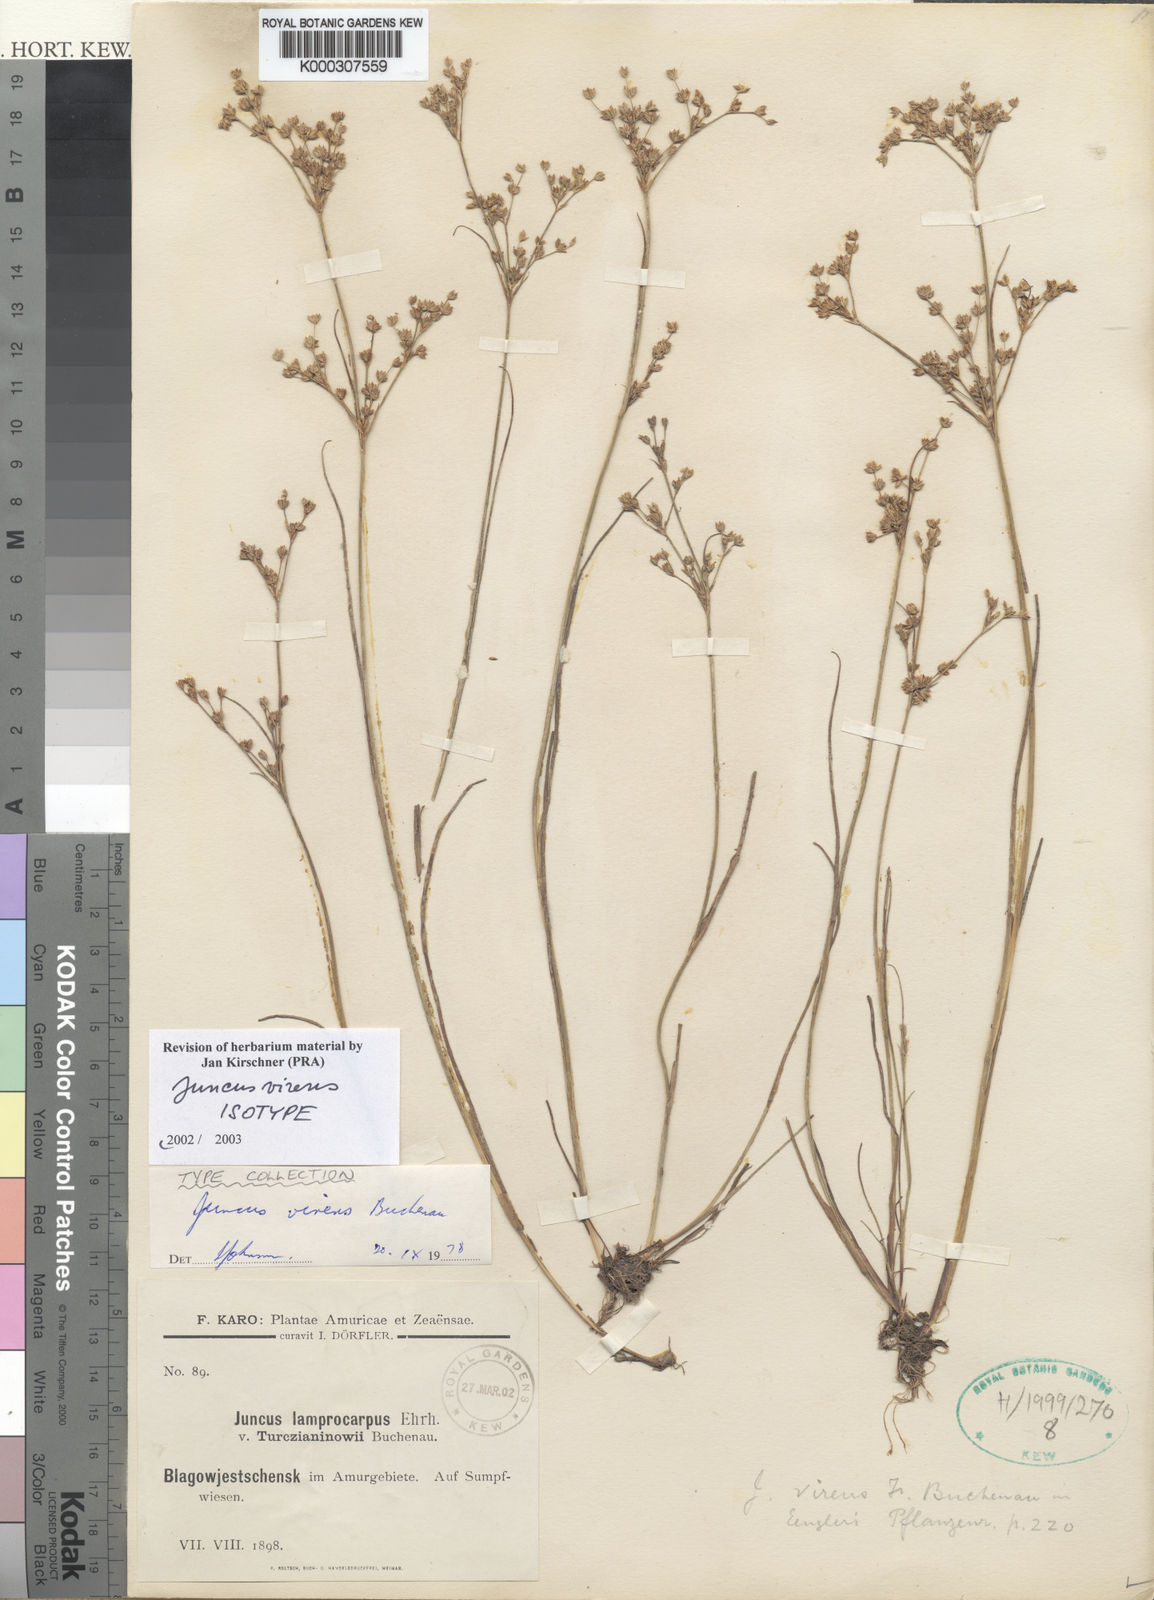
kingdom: Plantae
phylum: Tracheophyta
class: Liliopsida
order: Poales
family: Juncaceae
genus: Juncus
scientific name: Juncus virens
